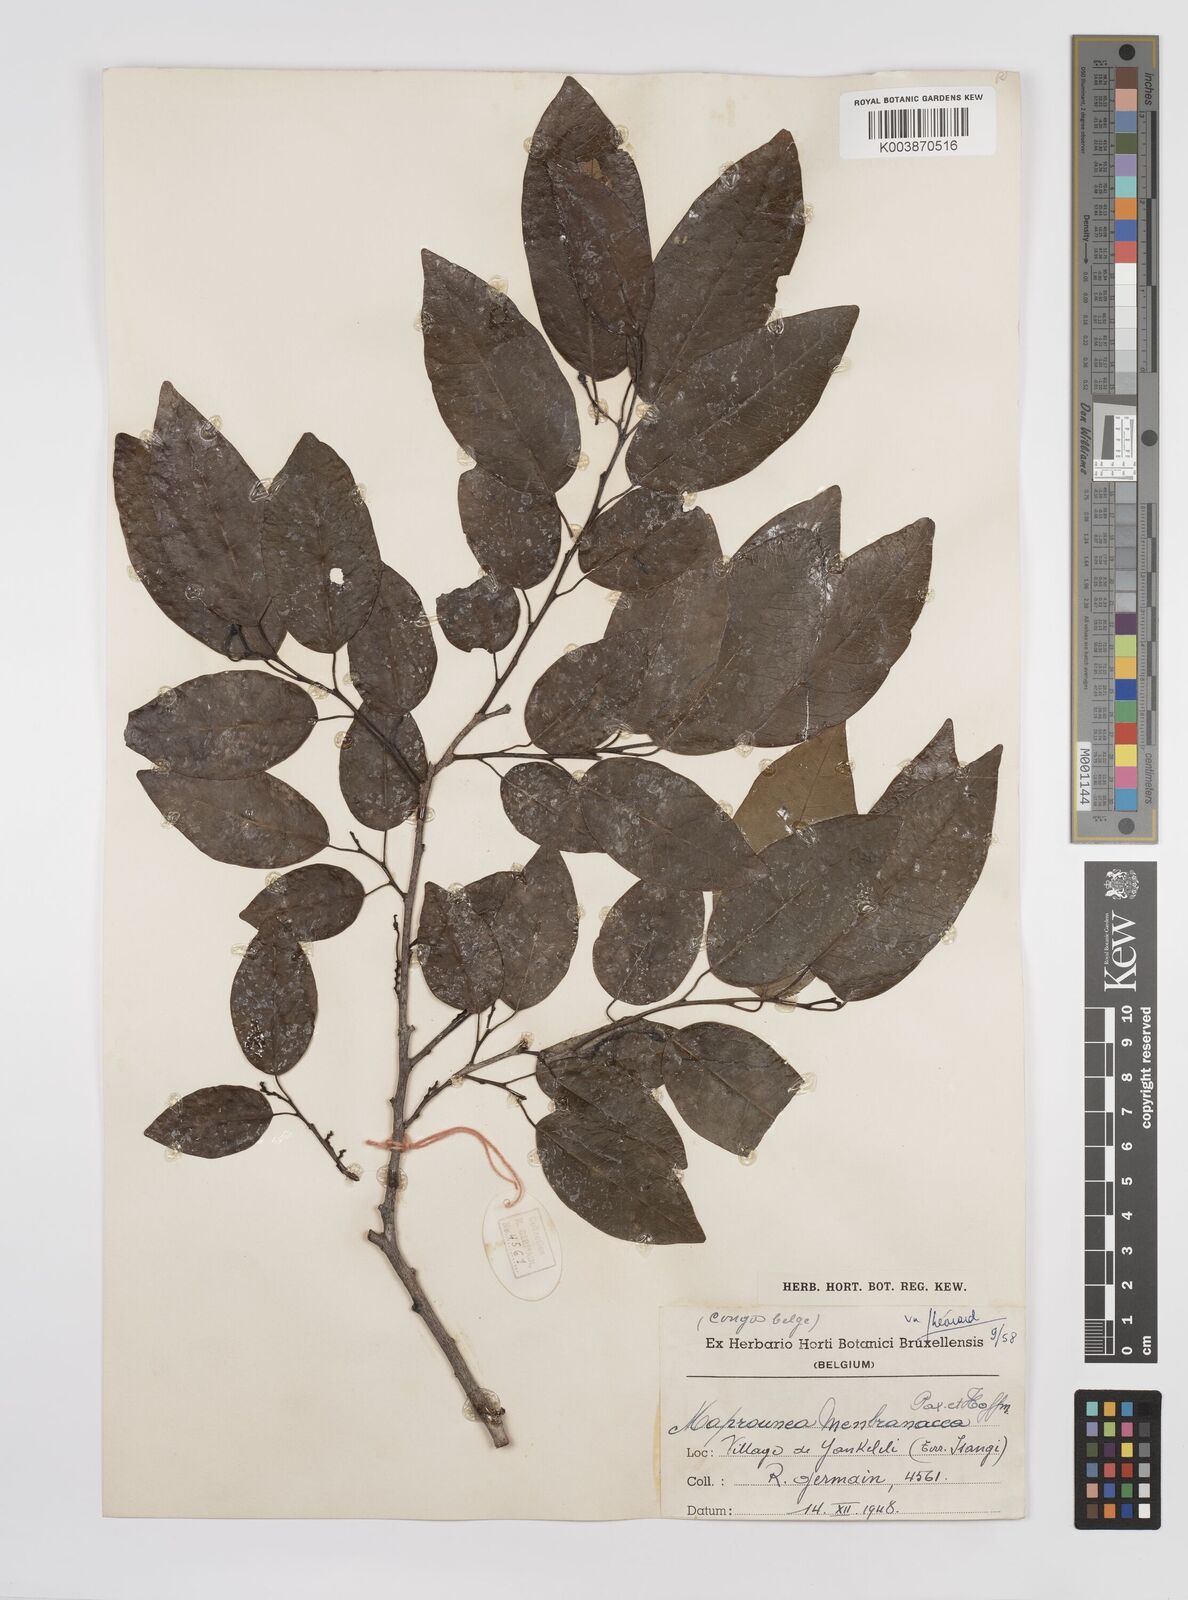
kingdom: Plantae
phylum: Tracheophyta
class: Magnoliopsida
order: Malpighiales
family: Euphorbiaceae
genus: Maprounea
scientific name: Maprounea membranacea
